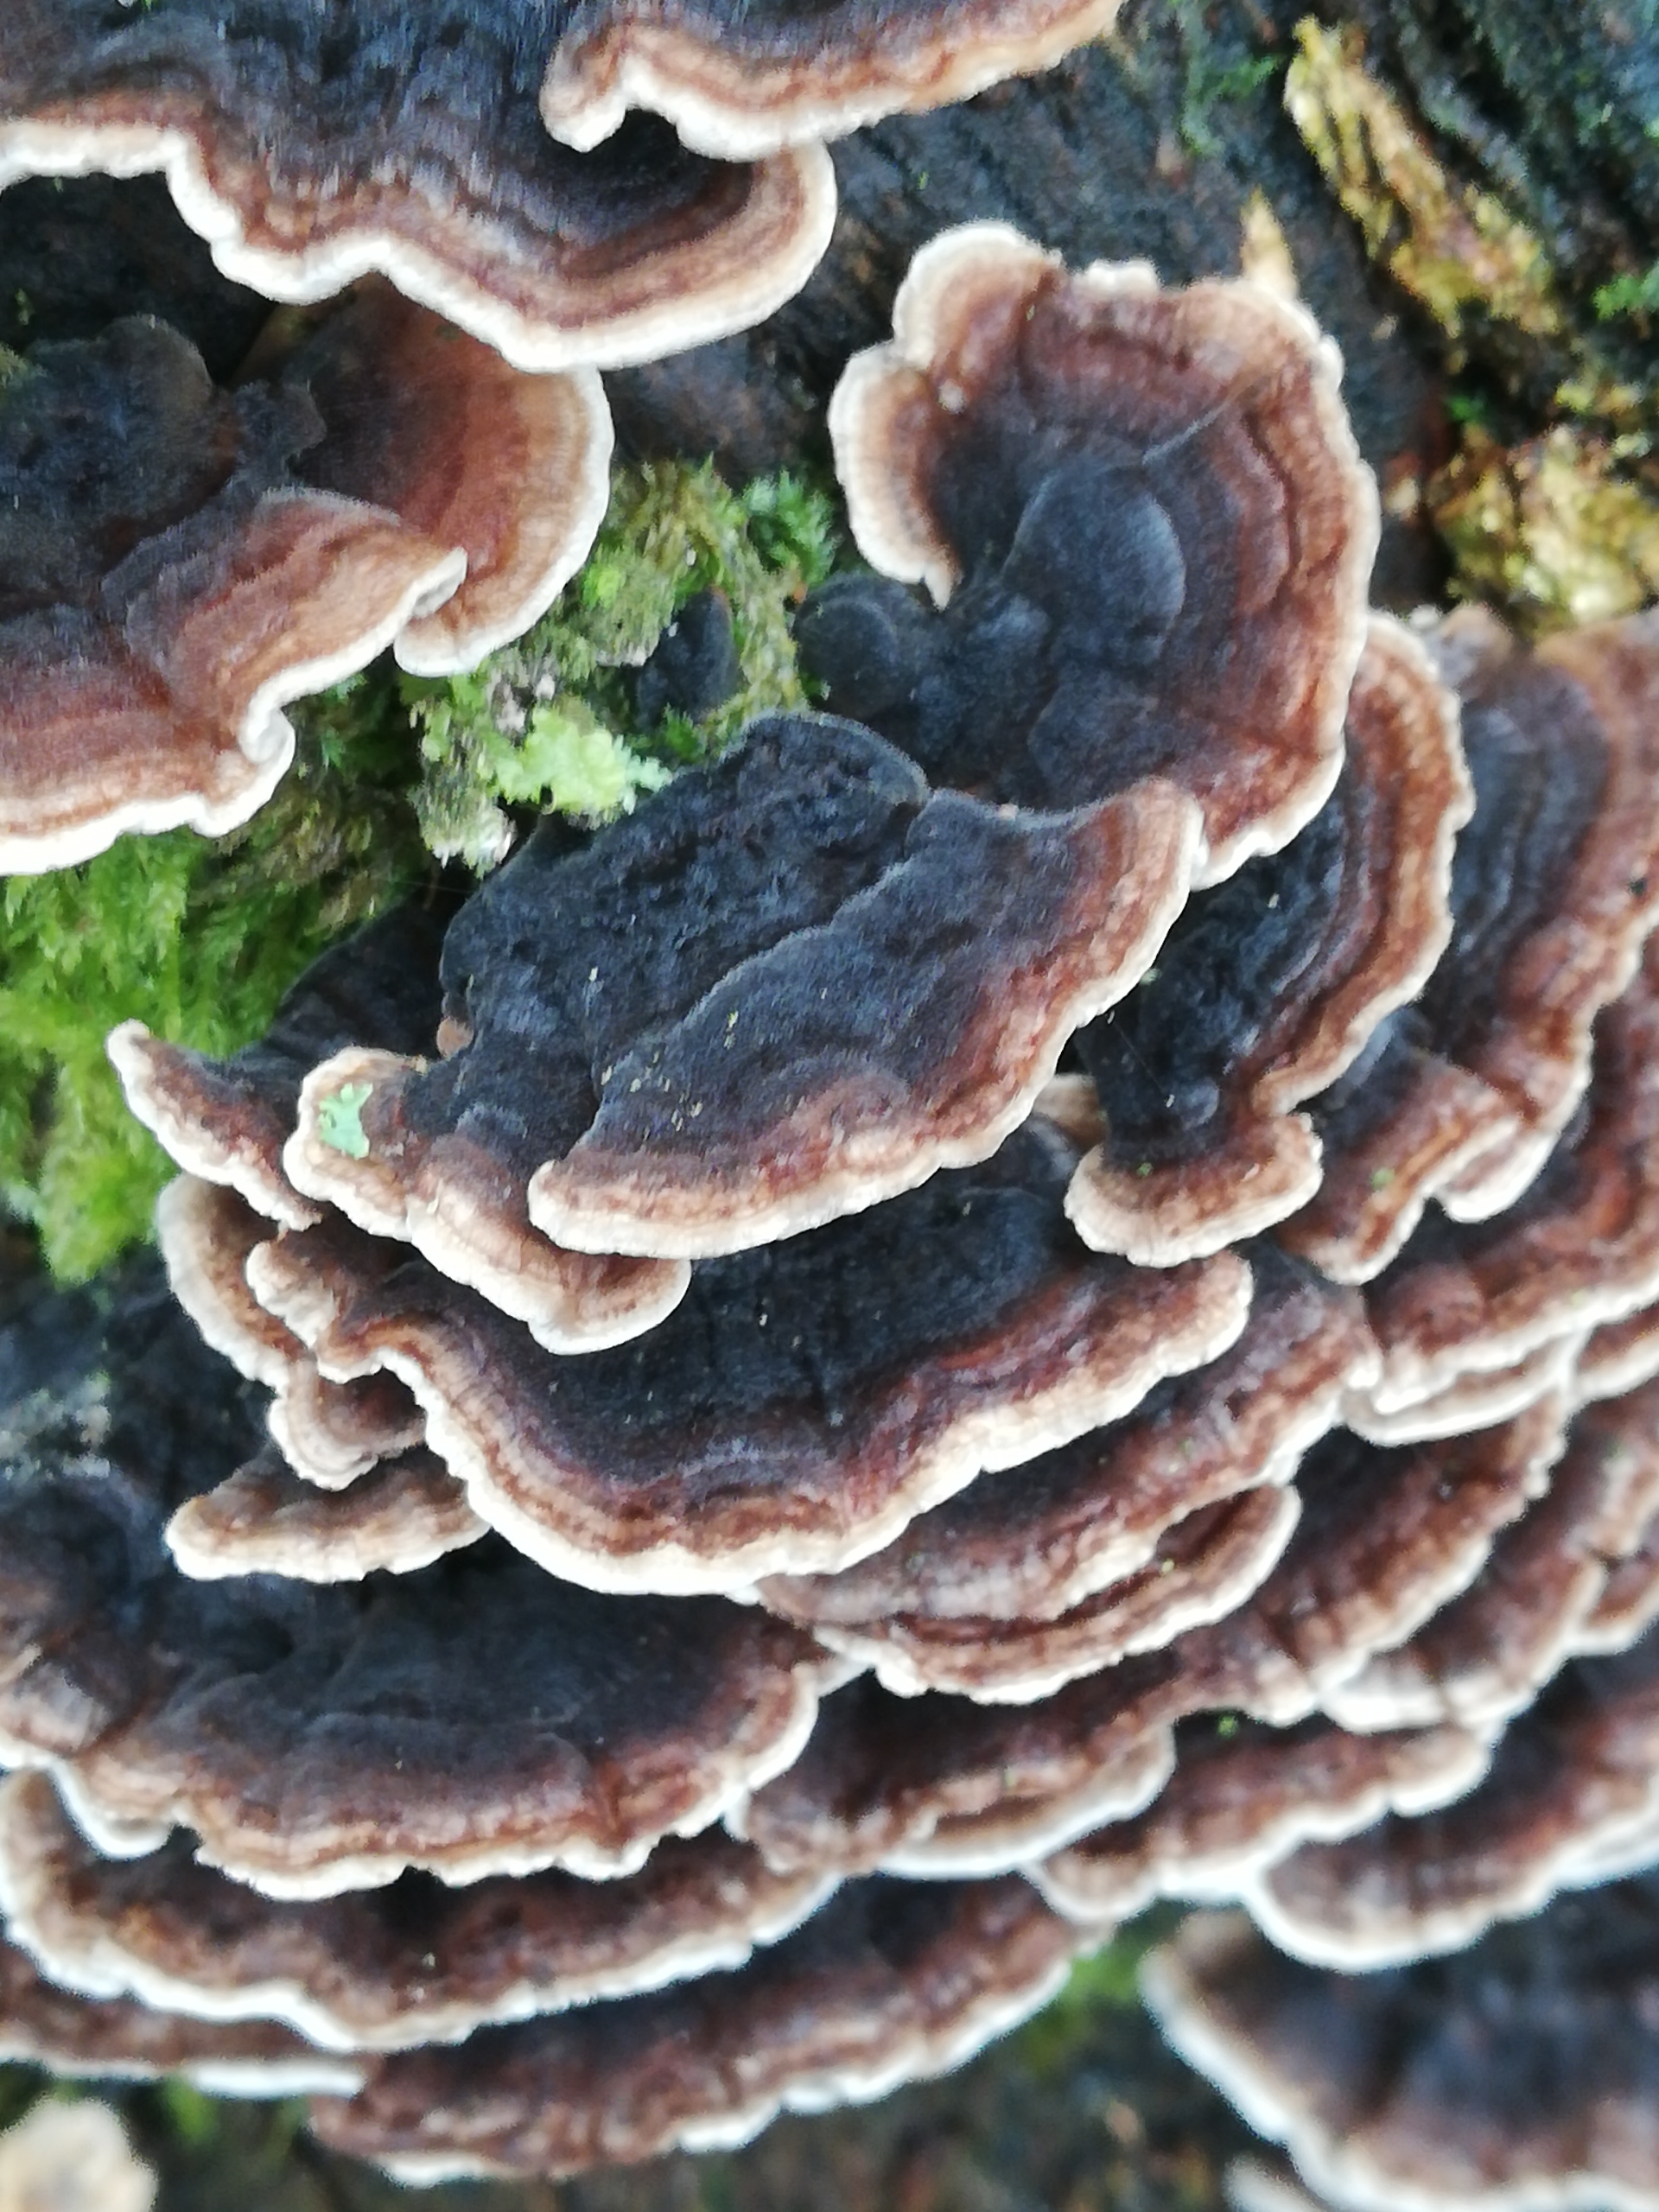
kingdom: Fungi
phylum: Basidiomycota
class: Agaricomycetes
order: Polyporales
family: Polyporaceae
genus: Trametes
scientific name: Trametes versicolor
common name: Broget læderporesvamp
